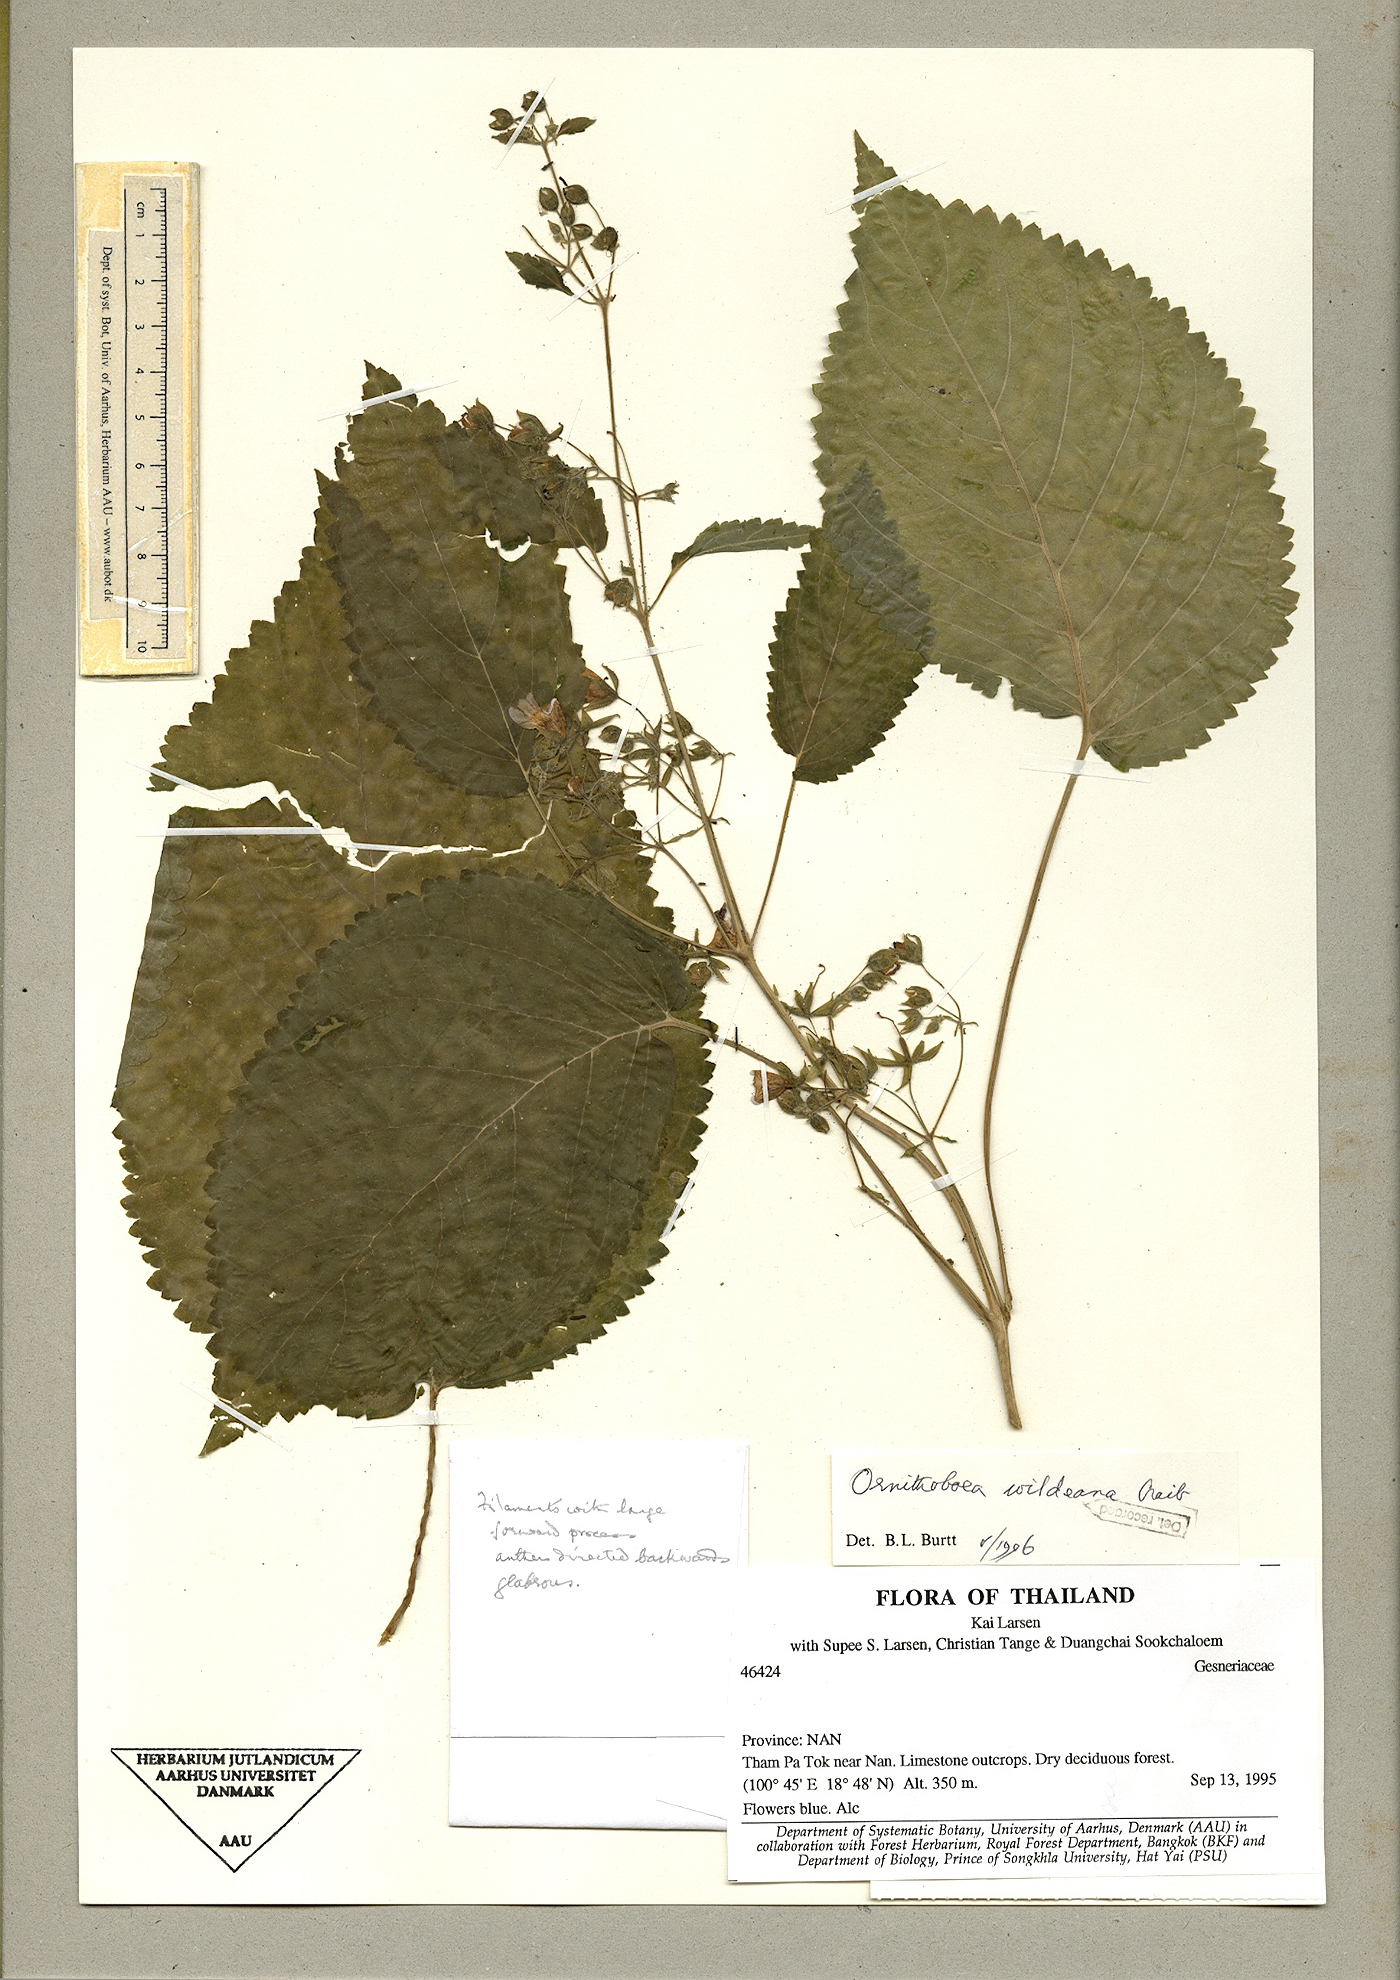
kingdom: Plantae
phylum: Tracheophyta
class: Magnoliopsida
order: Lamiales
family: Gesneriaceae
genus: Ornithoboea
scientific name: Ornithoboea puglisiae
